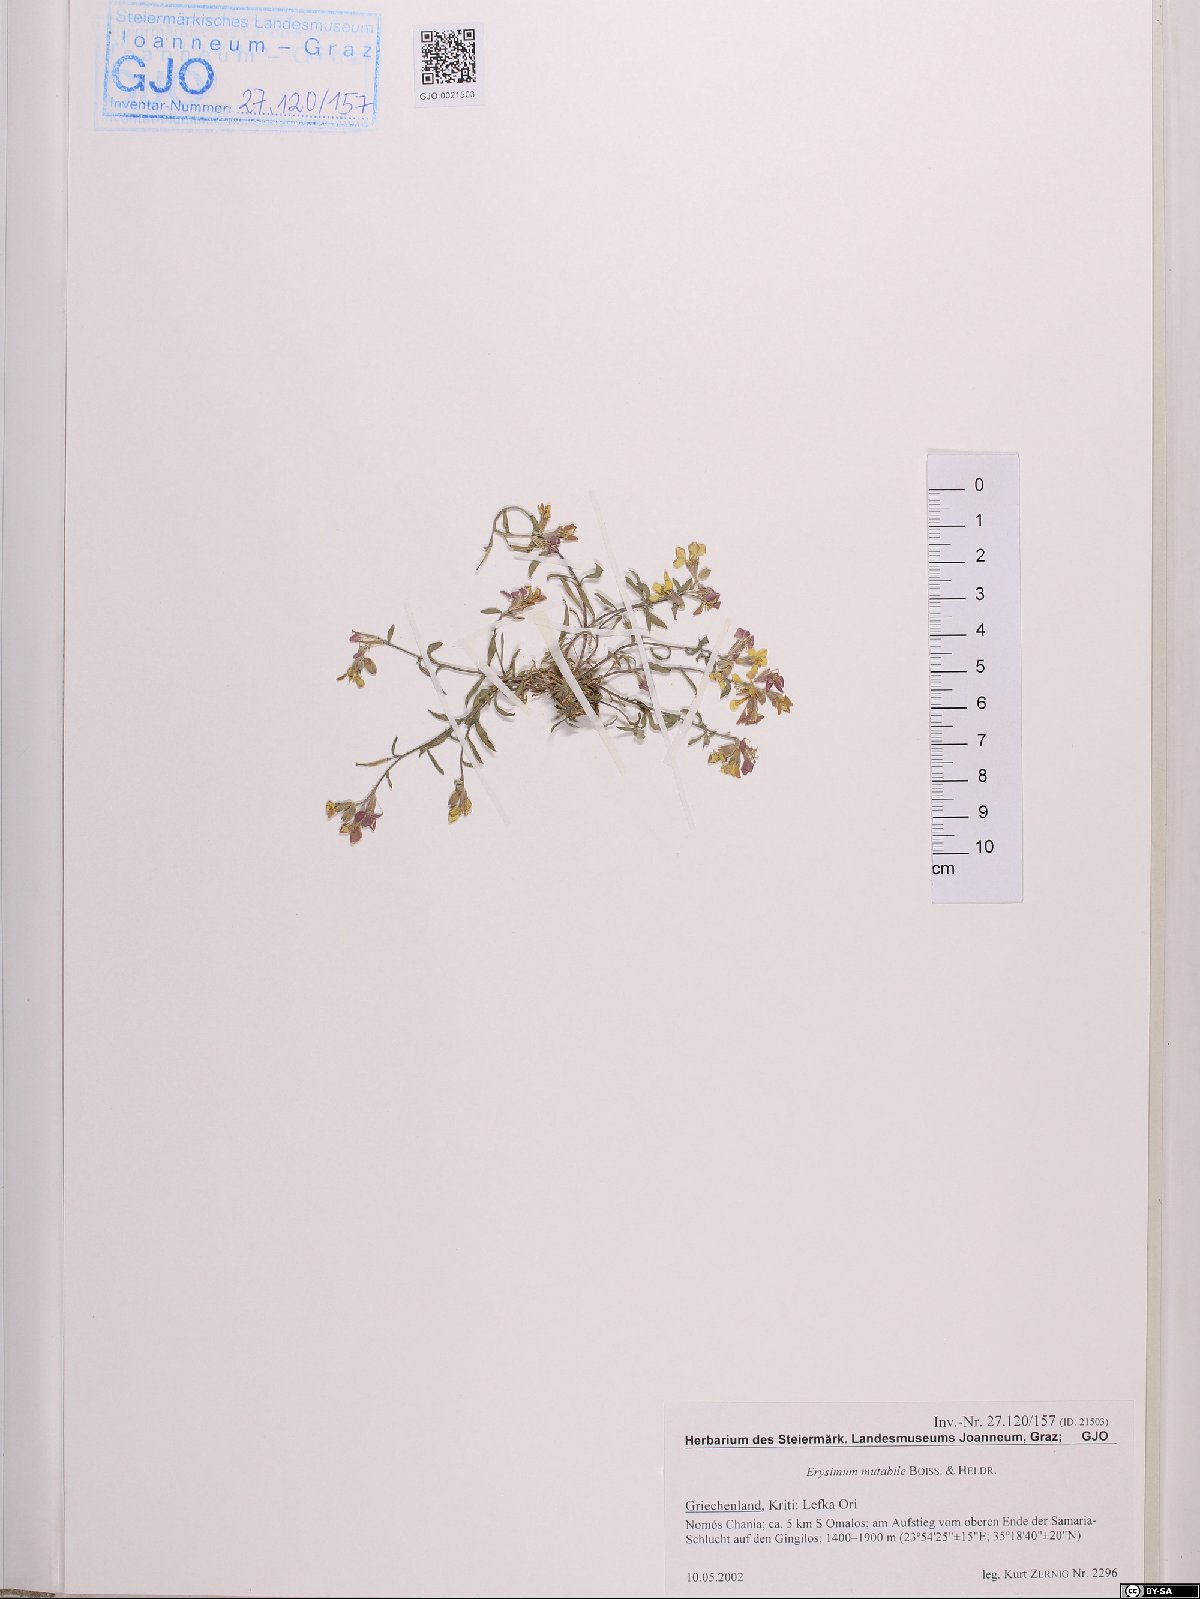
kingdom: Plantae
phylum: Tracheophyta
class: Magnoliopsida
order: Brassicales
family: Brassicaceae
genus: Erysimum
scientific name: Erysimum mutabile
